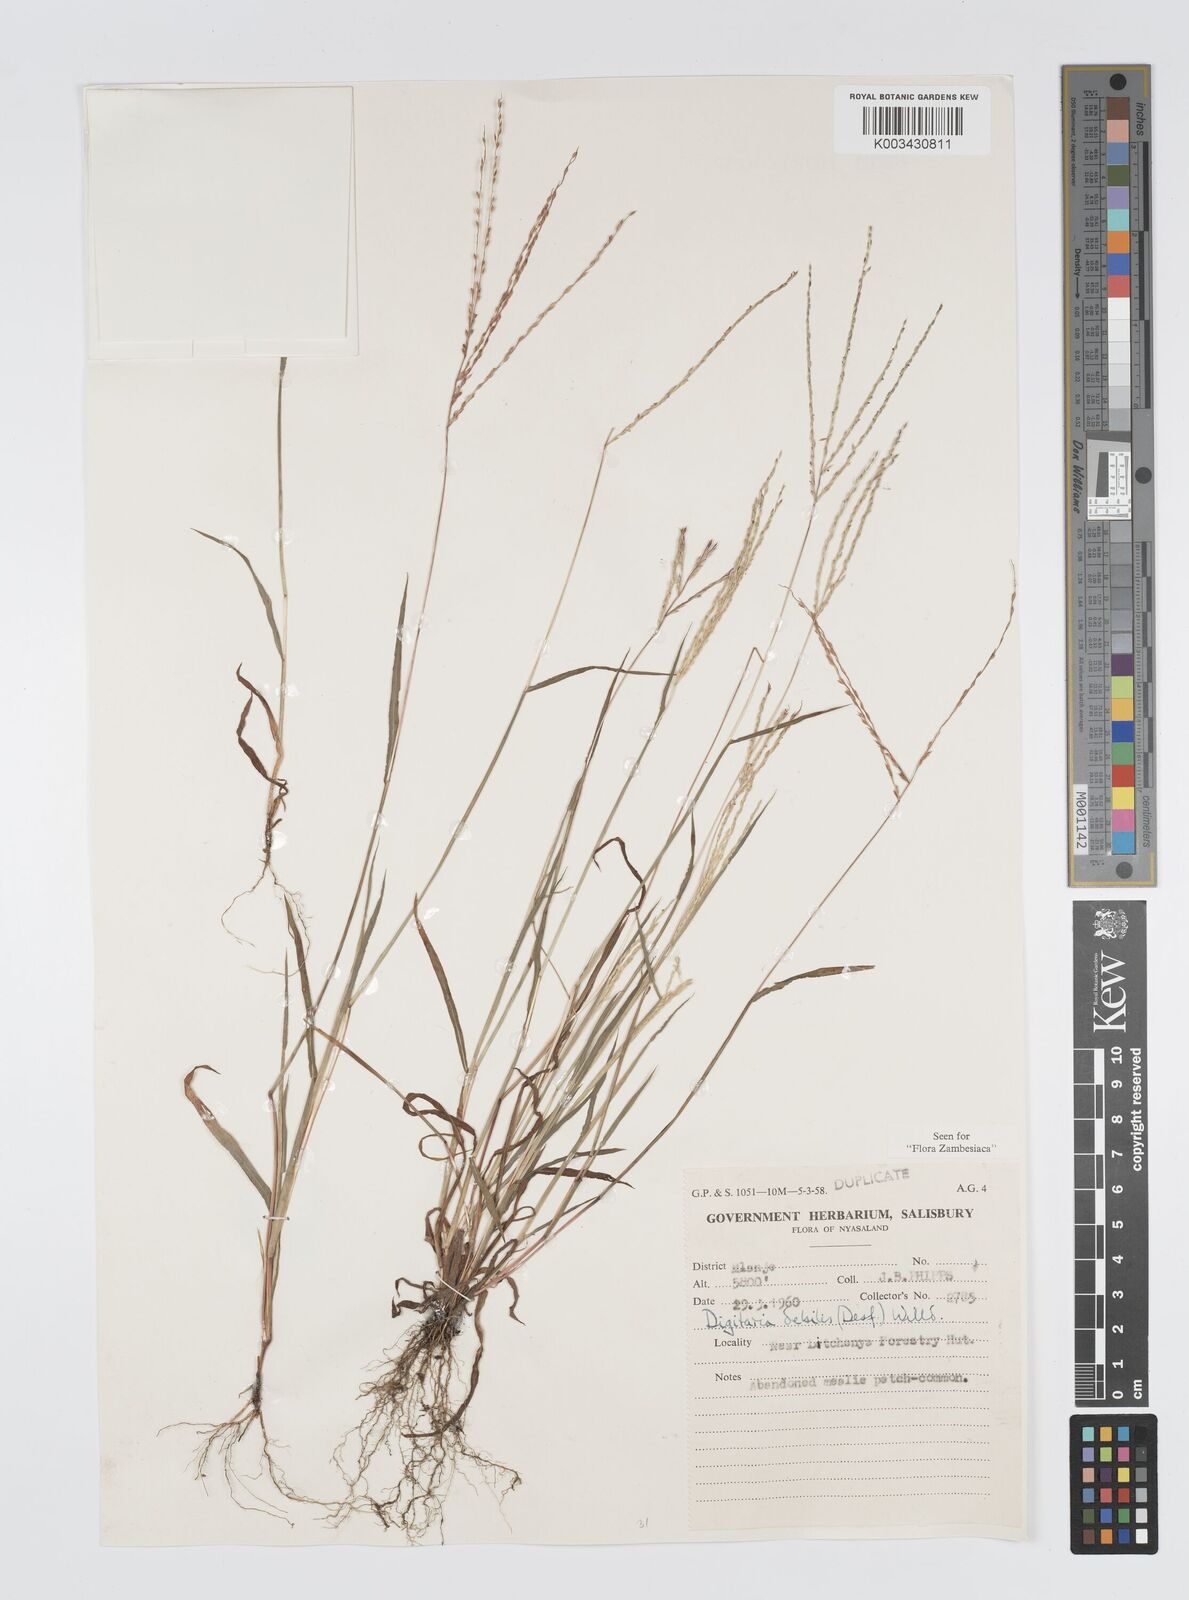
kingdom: Plantae
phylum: Tracheophyta
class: Liliopsida
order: Poales
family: Poaceae
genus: Digitaria
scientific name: Digitaria debilis
